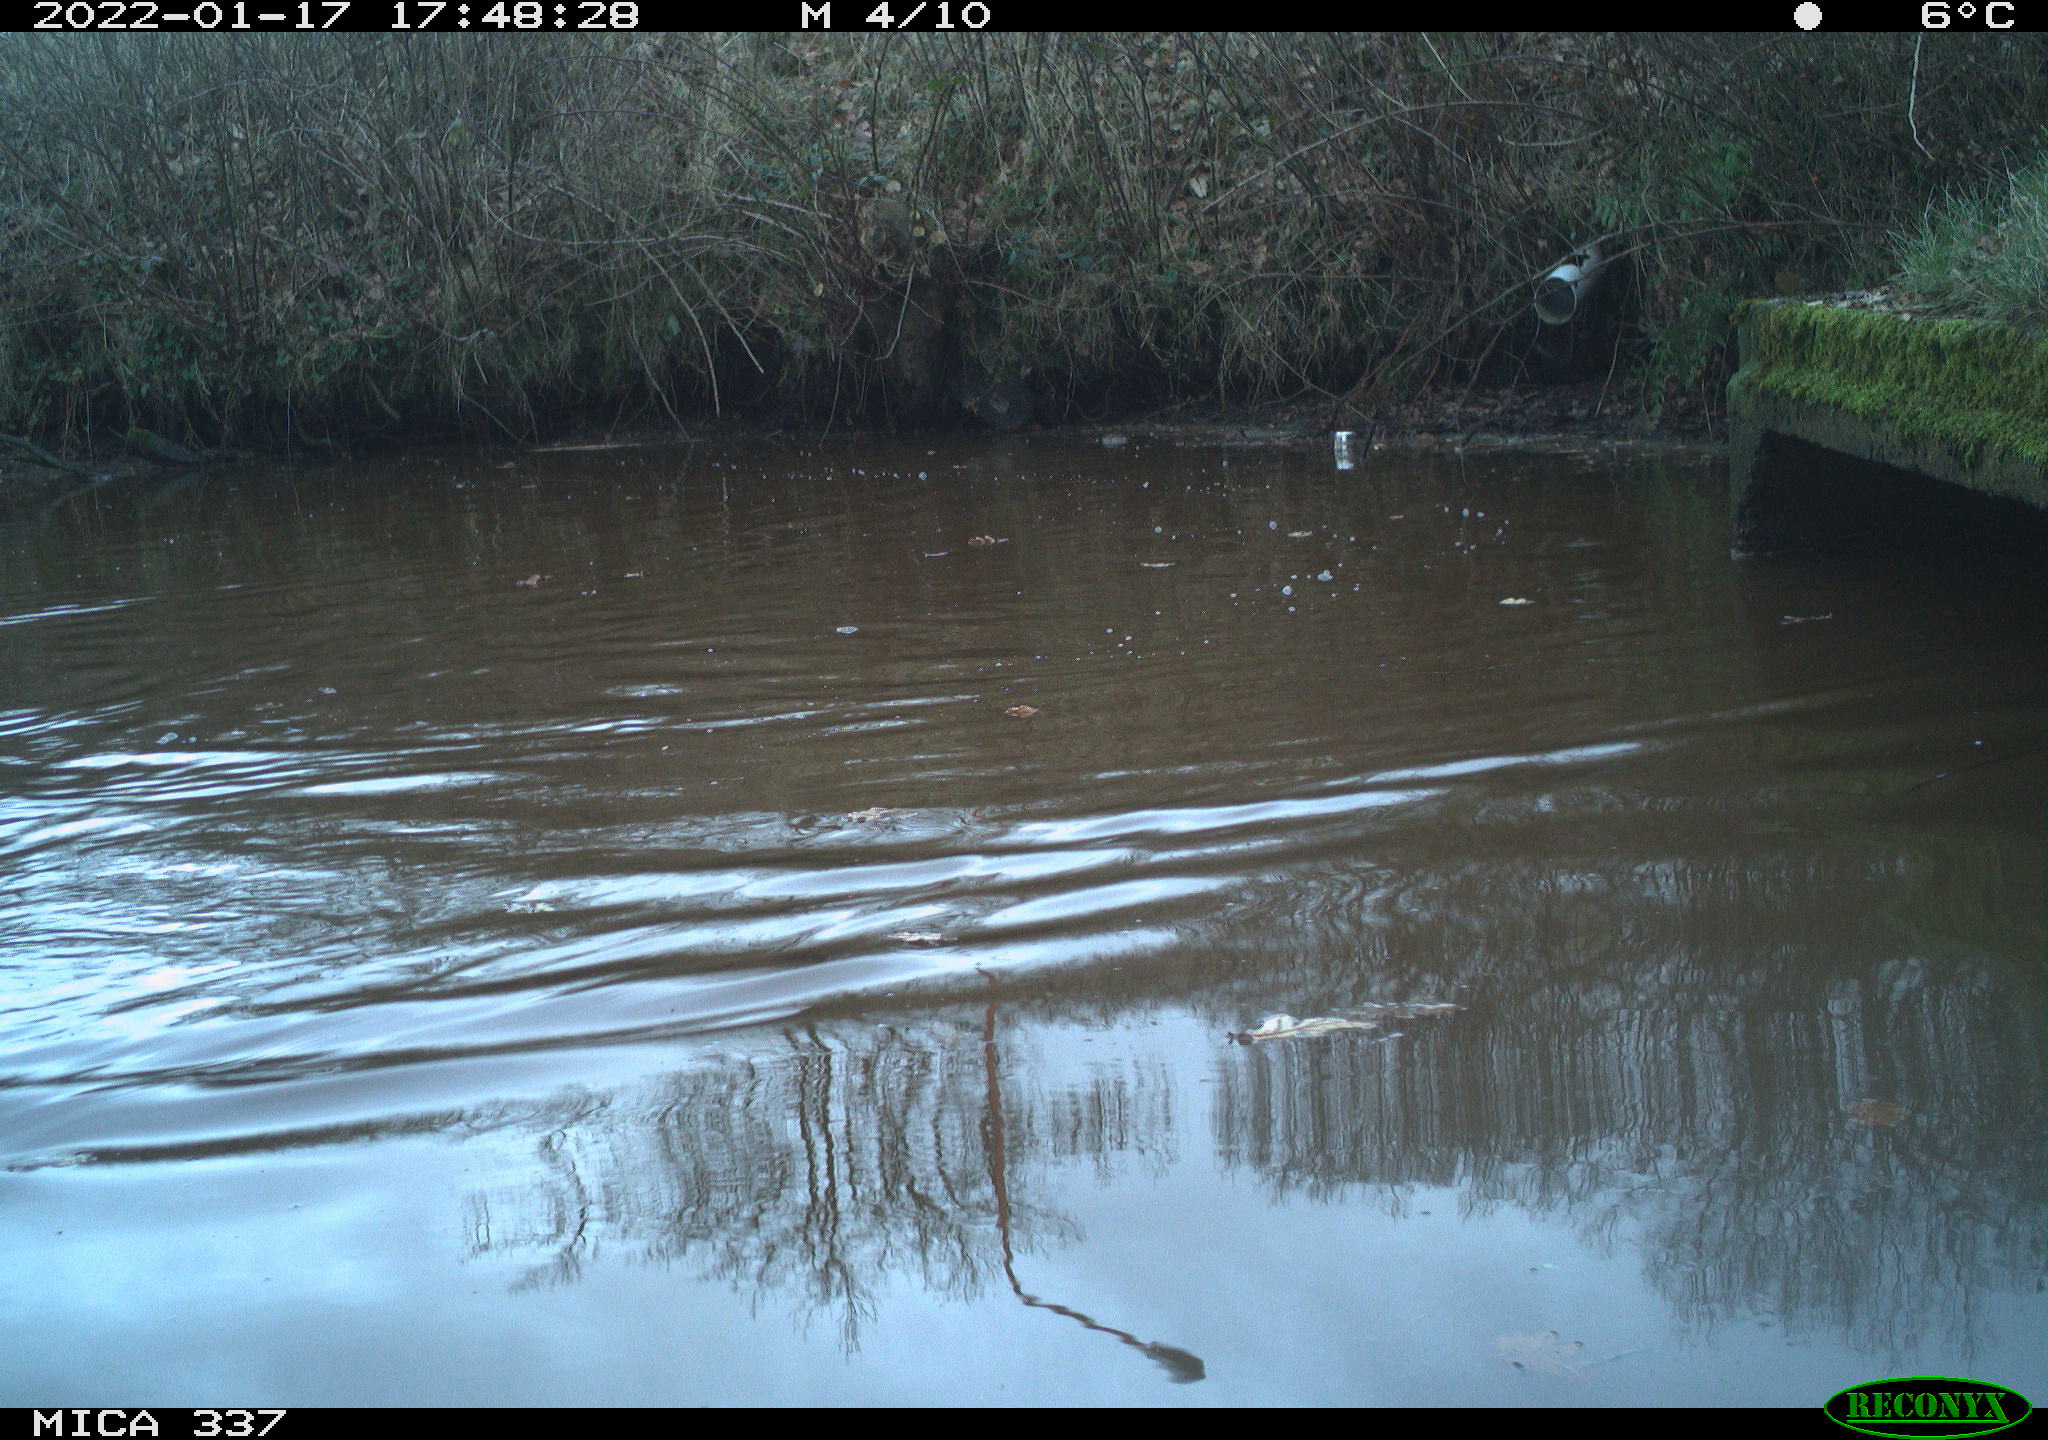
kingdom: Animalia
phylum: Chordata
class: Aves
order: Anseriformes
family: Anatidae
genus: Anas
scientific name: Anas platyrhynchos
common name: Mallard
